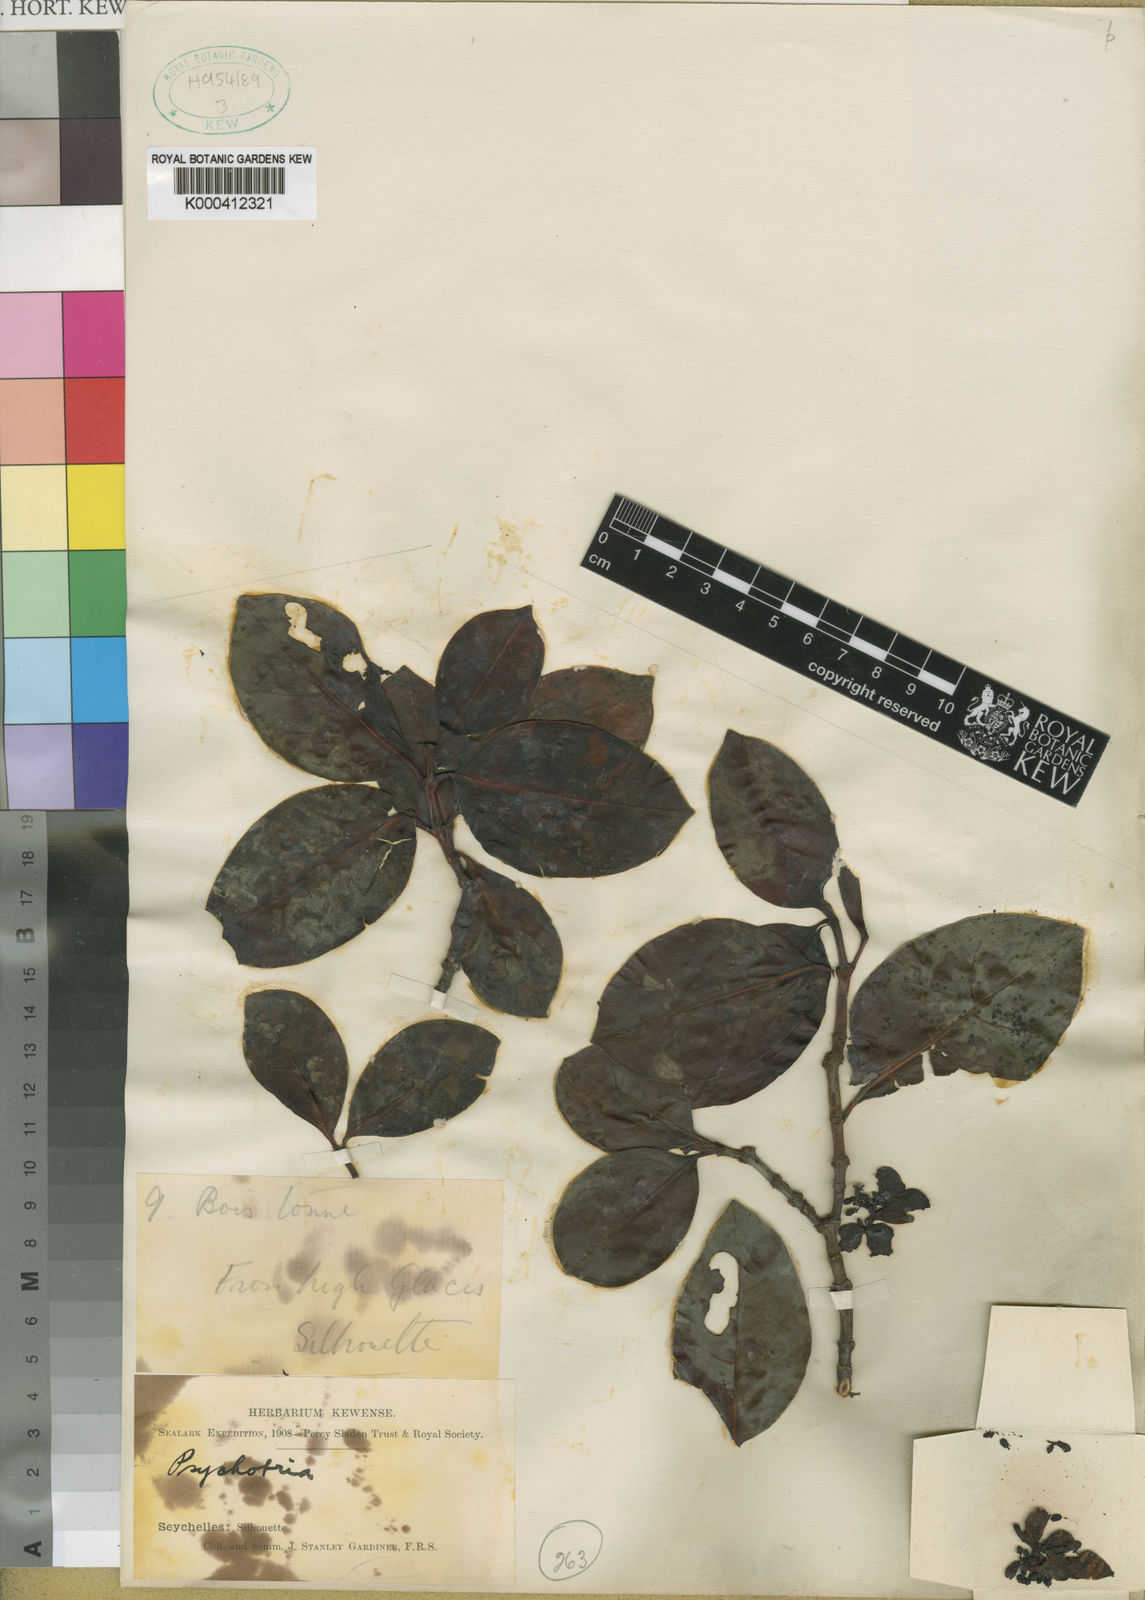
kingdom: Plantae
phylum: Tracheophyta
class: Magnoliopsida
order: Gentianales
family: Rubiaceae
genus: Psychotria
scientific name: Psychotria pervillei
